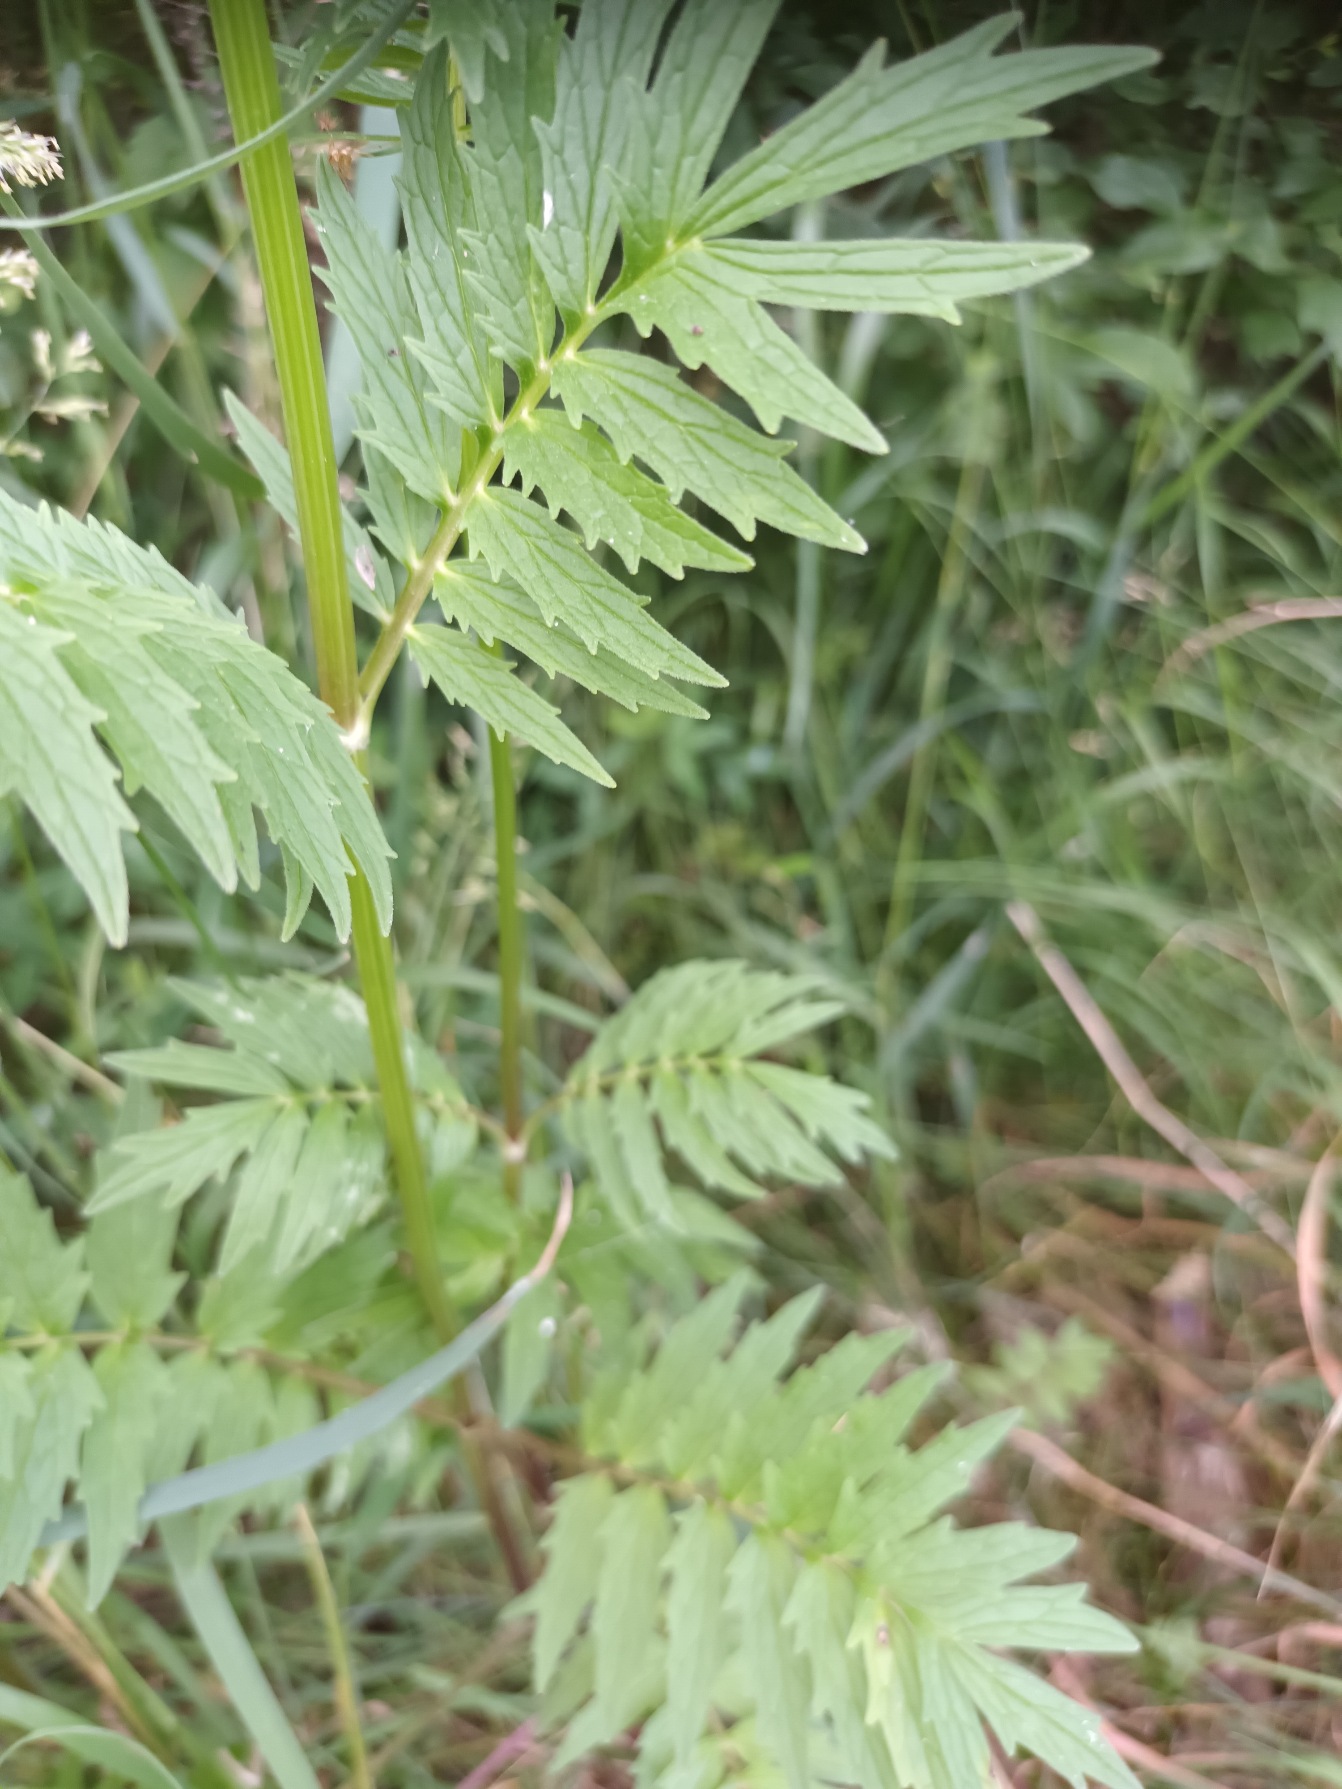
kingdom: Plantae
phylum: Tracheophyta
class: Magnoliopsida
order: Dipsacales
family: Caprifoliaceae
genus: Valeriana
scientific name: Valeriana officinalis
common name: Læge-baldrian
